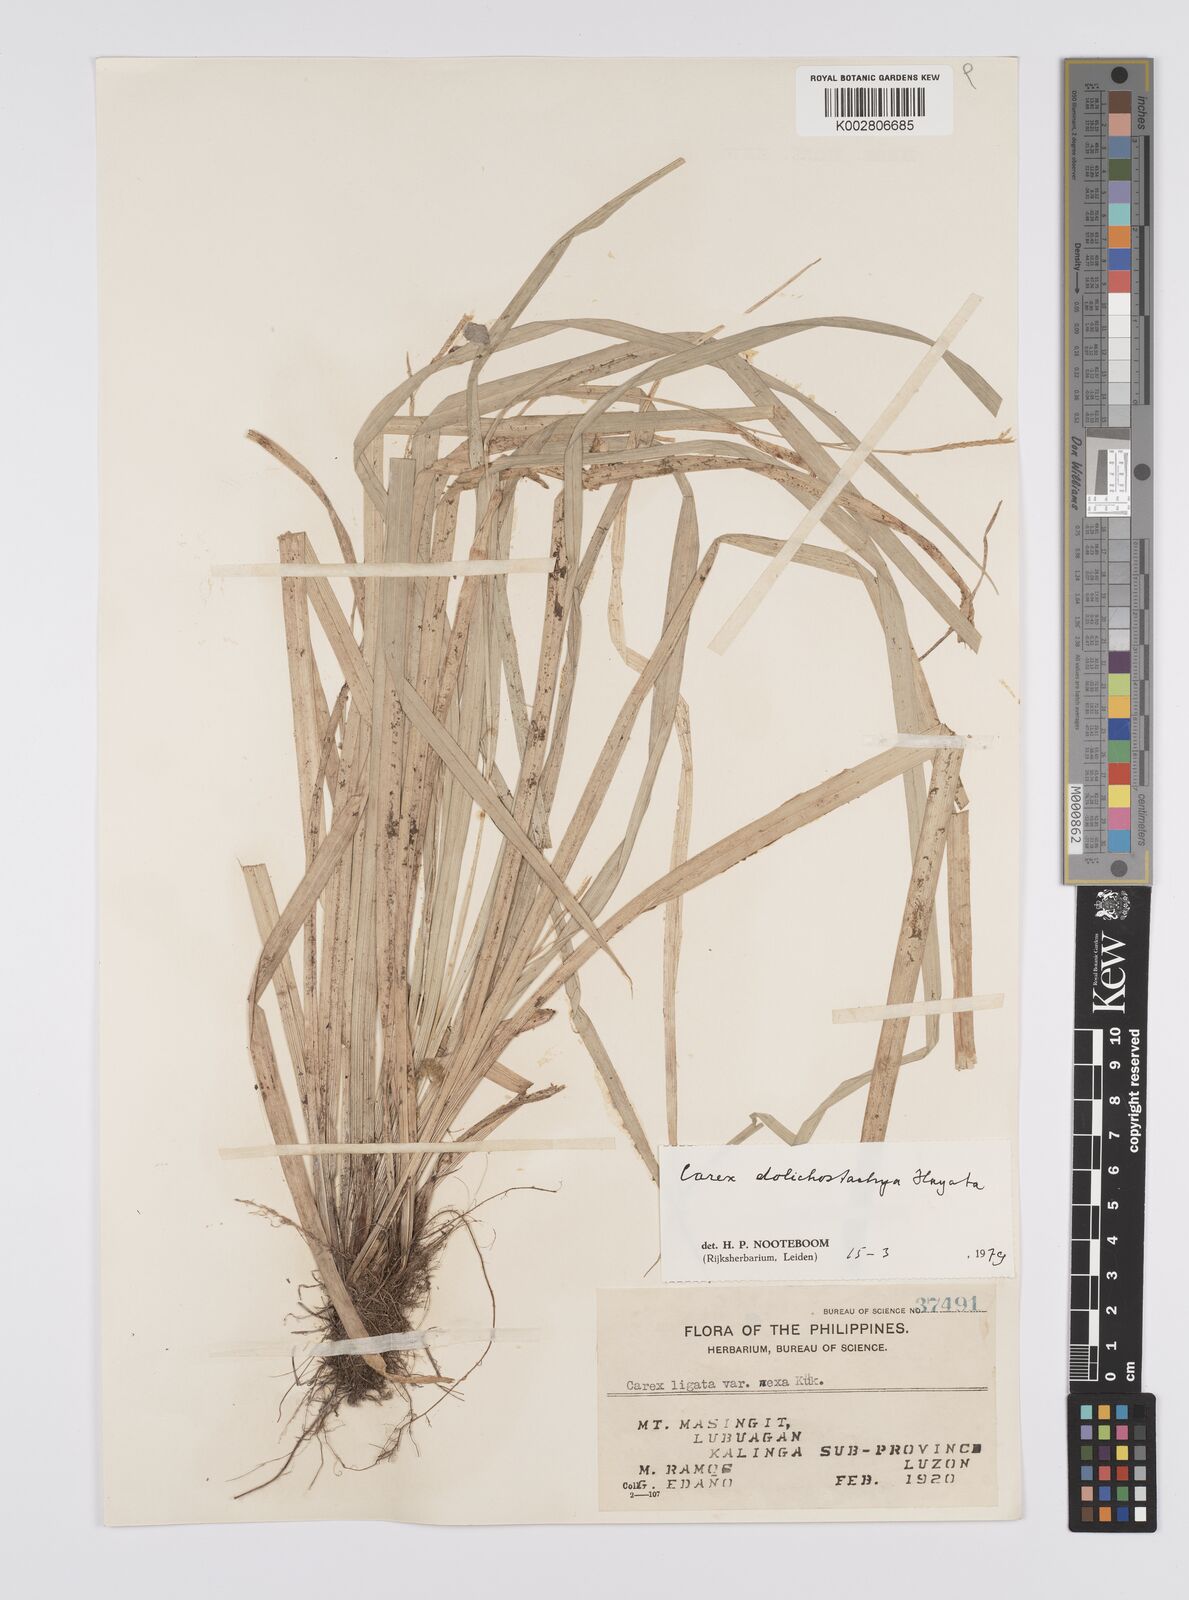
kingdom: Plantae
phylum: Tracheophyta
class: Liliopsida
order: Poales
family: Cyperaceae
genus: Carex
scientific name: Carex dolichostachya
